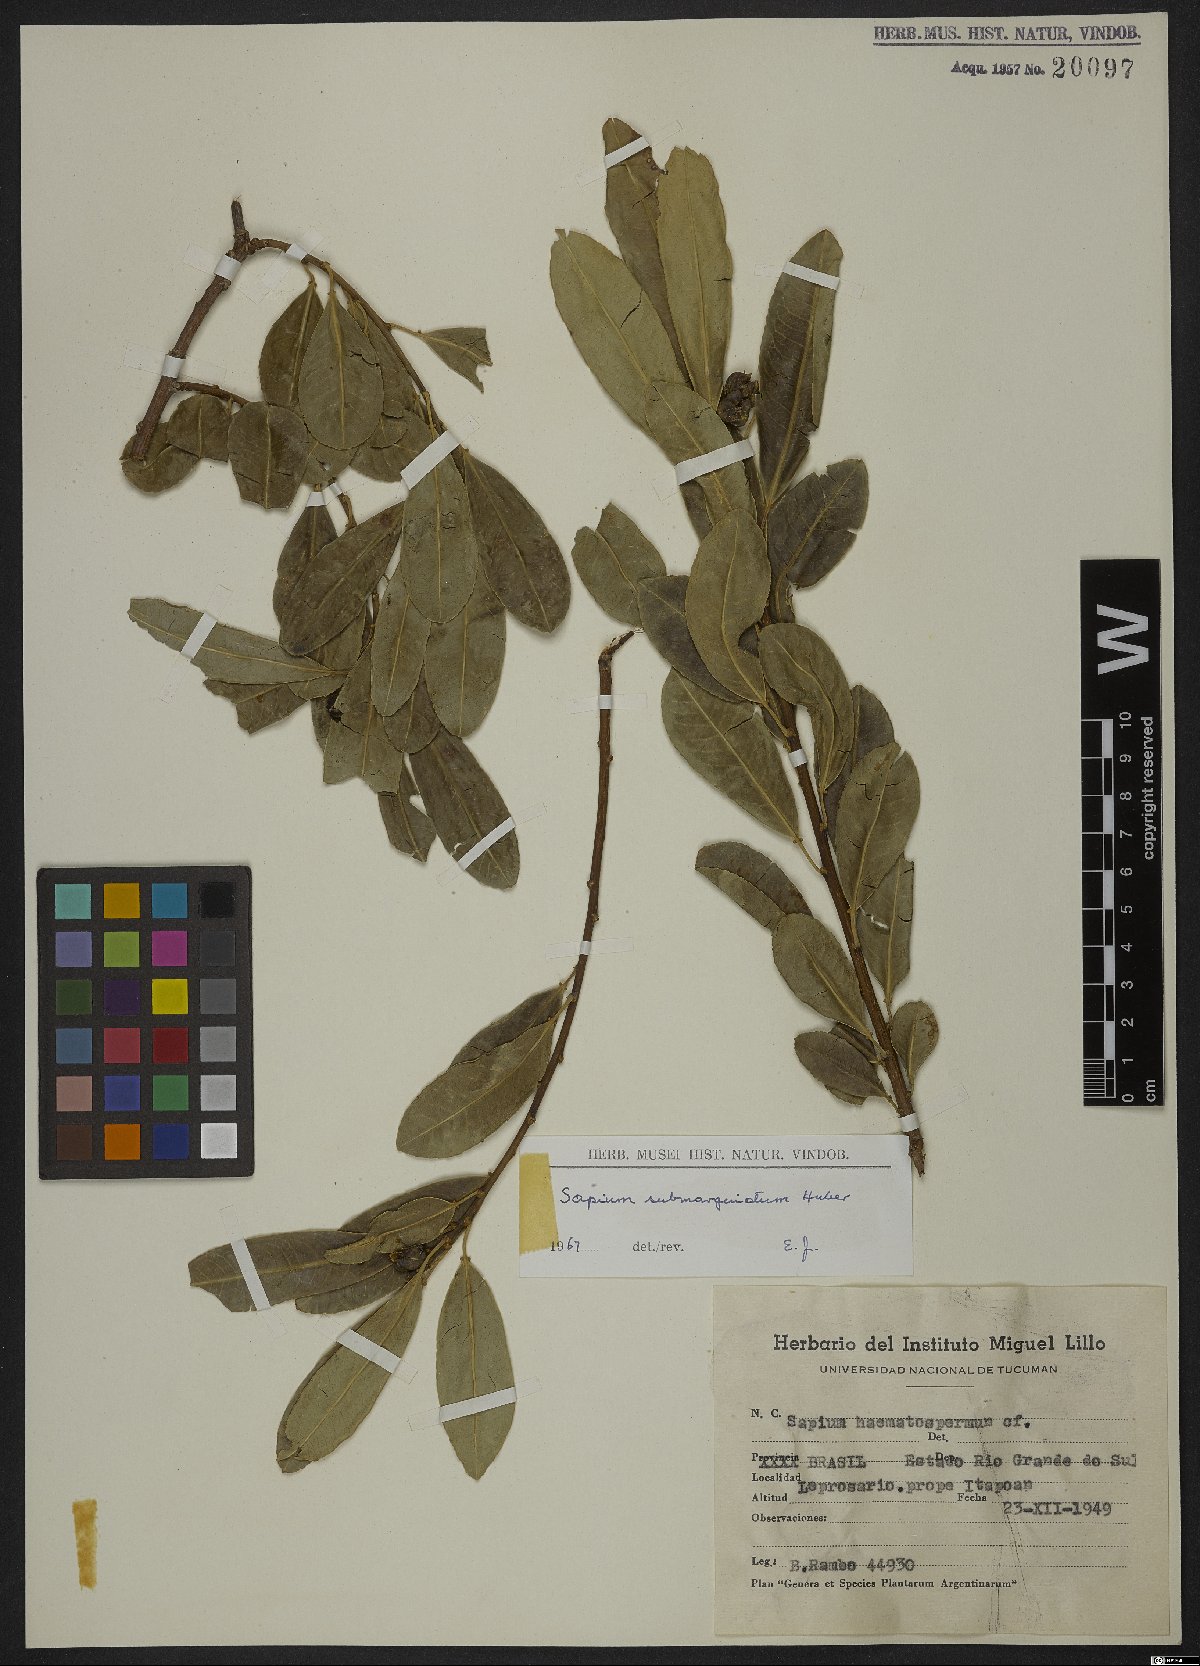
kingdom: Plantae
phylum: Tracheophyta
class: Magnoliopsida
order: Malpighiales
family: Euphorbiaceae
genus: Sapium
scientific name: Sapium glandulosum
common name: Milktree
